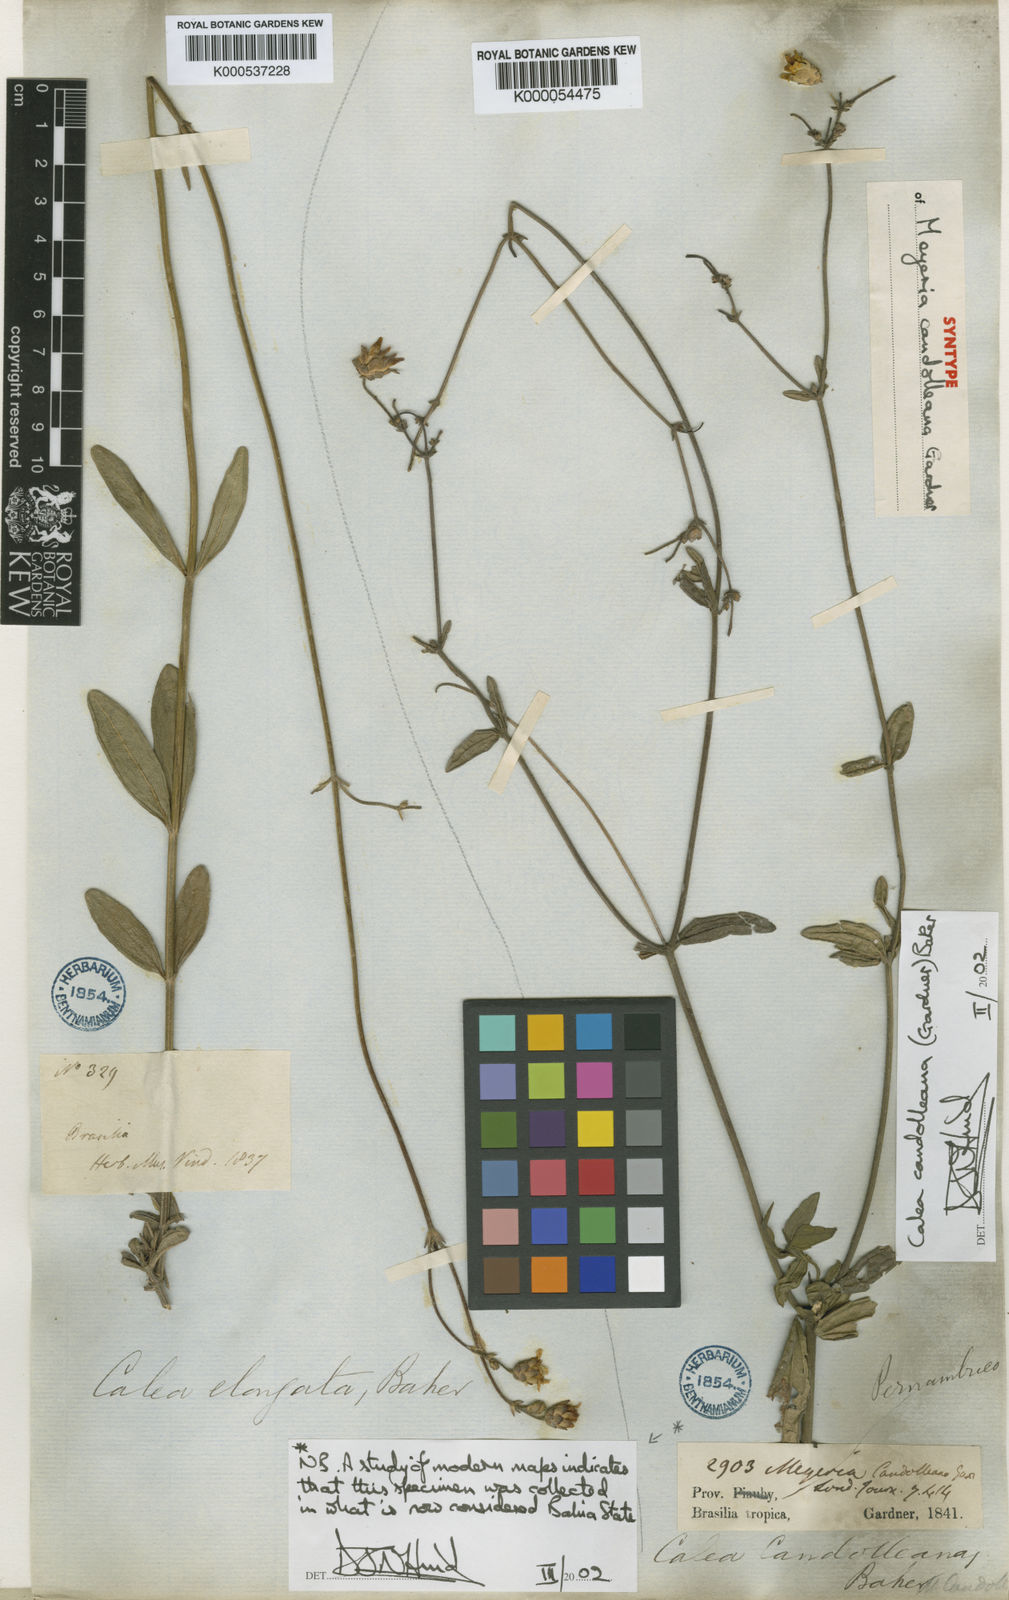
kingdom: Plantae
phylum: Tracheophyta
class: Magnoliopsida
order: Asterales
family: Asteraceae
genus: Calea
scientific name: Calea candolleana
